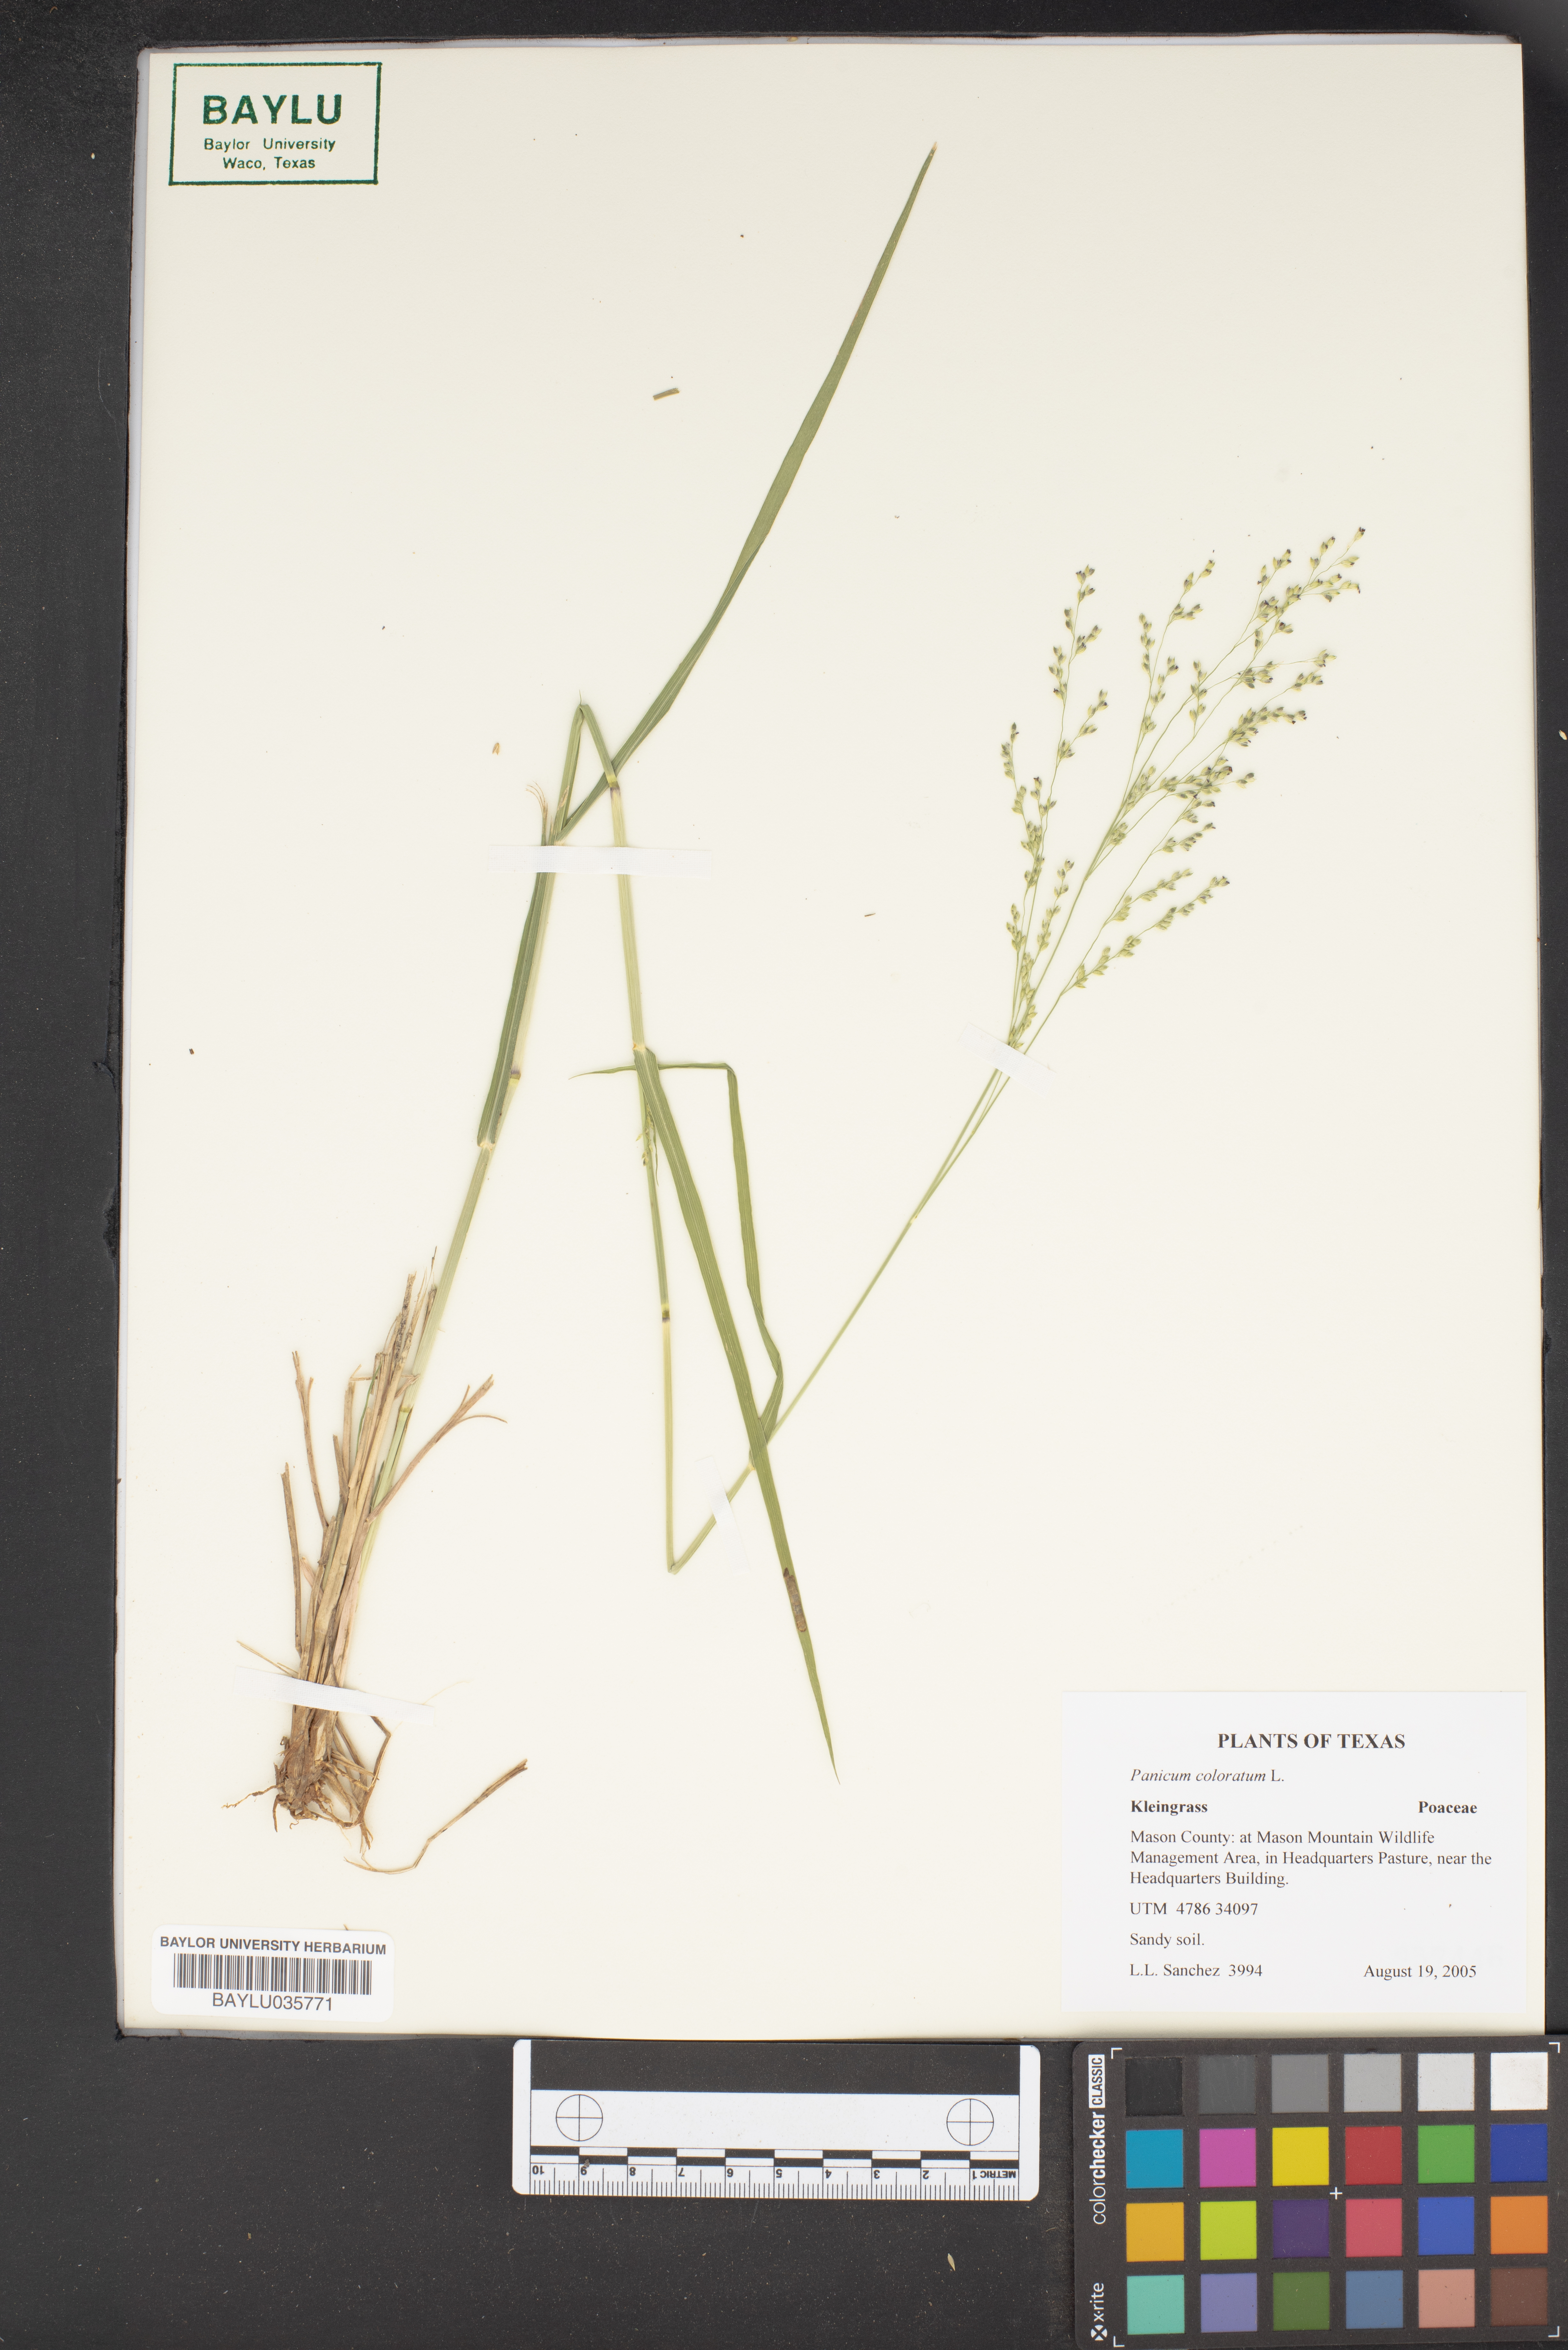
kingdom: Plantae
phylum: Tracheophyta
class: Liliopsida
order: Poales
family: Poaceae
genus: Panicum
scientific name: Panicum coloratum
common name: Kleingrass
